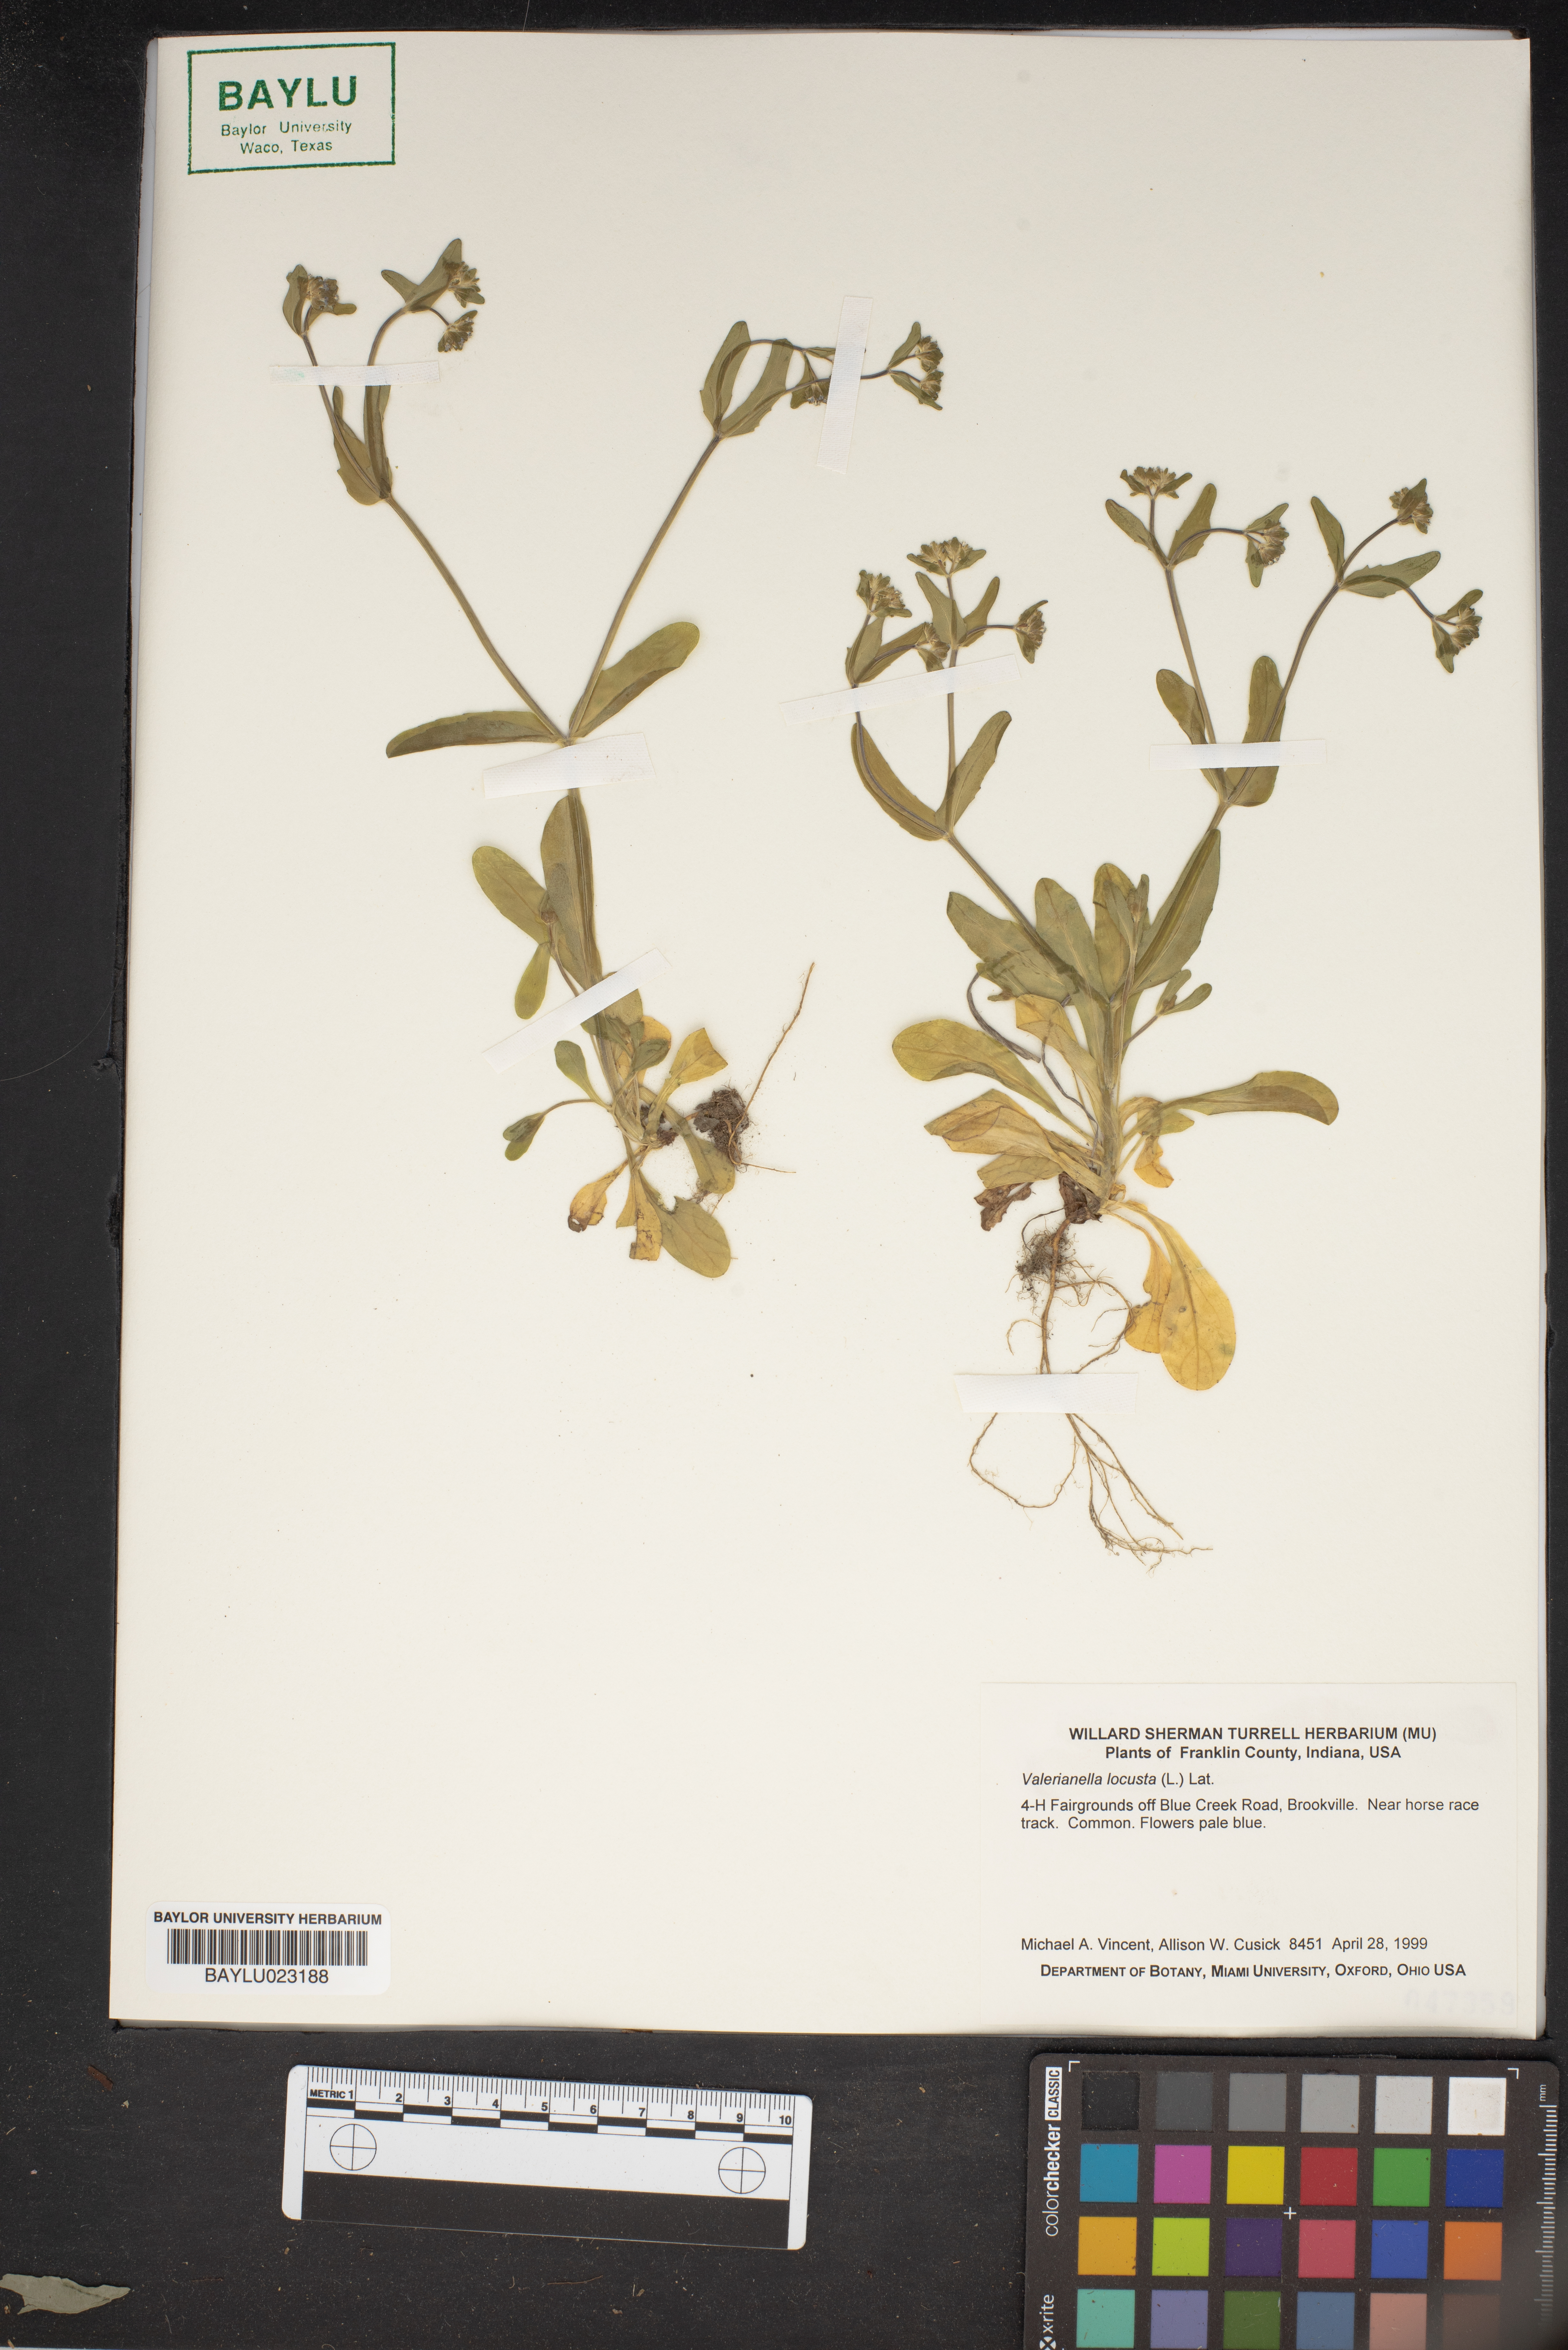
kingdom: Plantae
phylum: Tracheophyta
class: Magnoliopsida
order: Dipsacales
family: Caprifoliaceae
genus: Valerianella
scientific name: Valerianella locusta
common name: Common cornsalad
